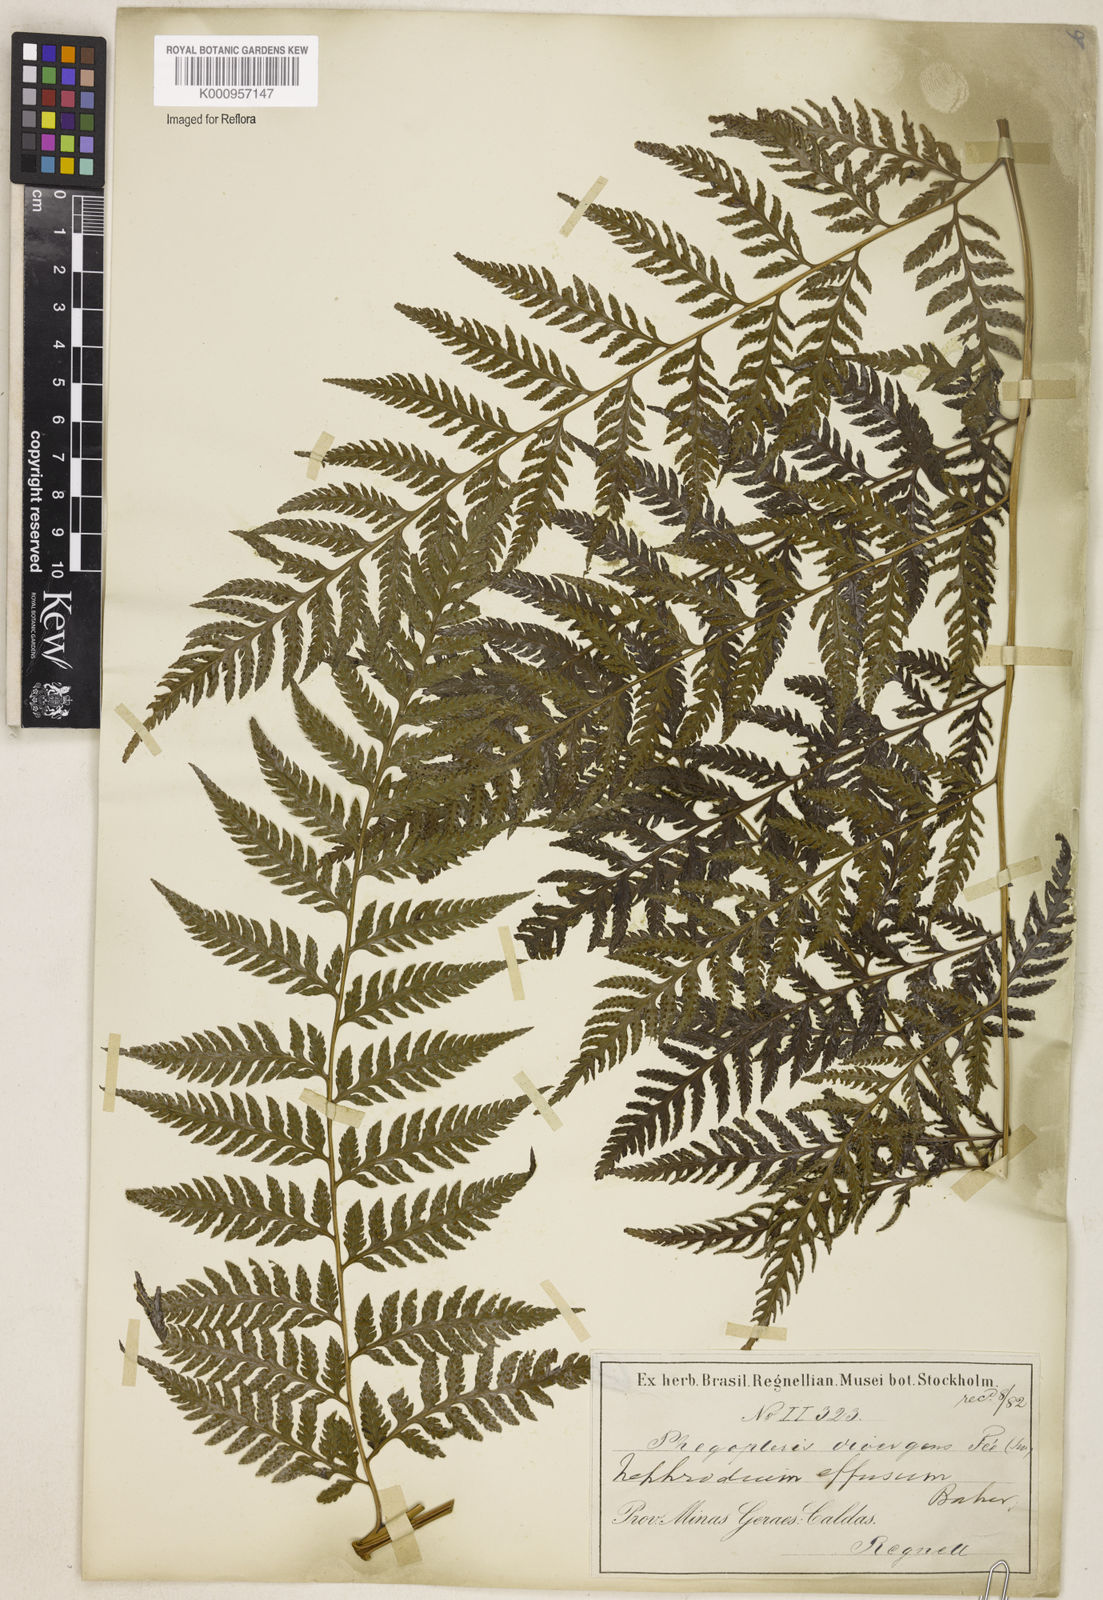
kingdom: Plantae
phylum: Tracheophyta
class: Polypodiopsida
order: Polypodiales
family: Dryopteridaceae
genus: Parapolystichum
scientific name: Parapolystichum effusum
